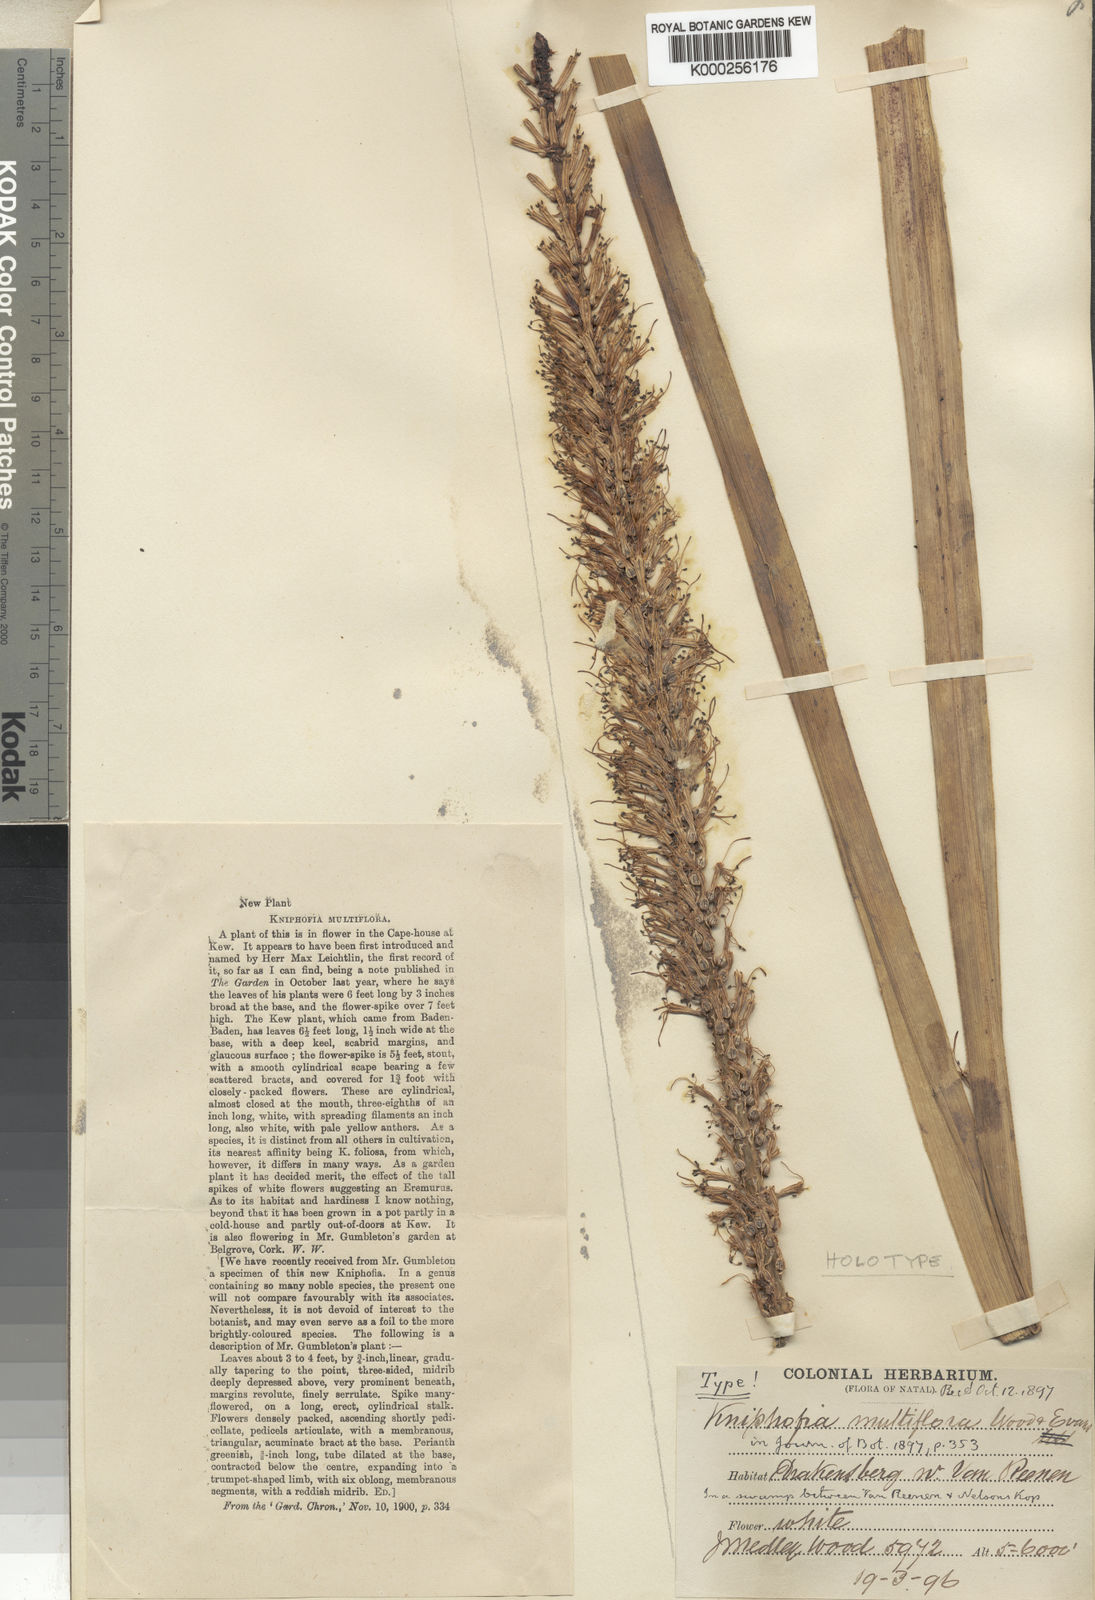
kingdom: Plantae
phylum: Tracheophyta
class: Liliopsida
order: Asparagales
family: Asphodelaceae
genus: Kniphofia
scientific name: Kniphofia multiflora
